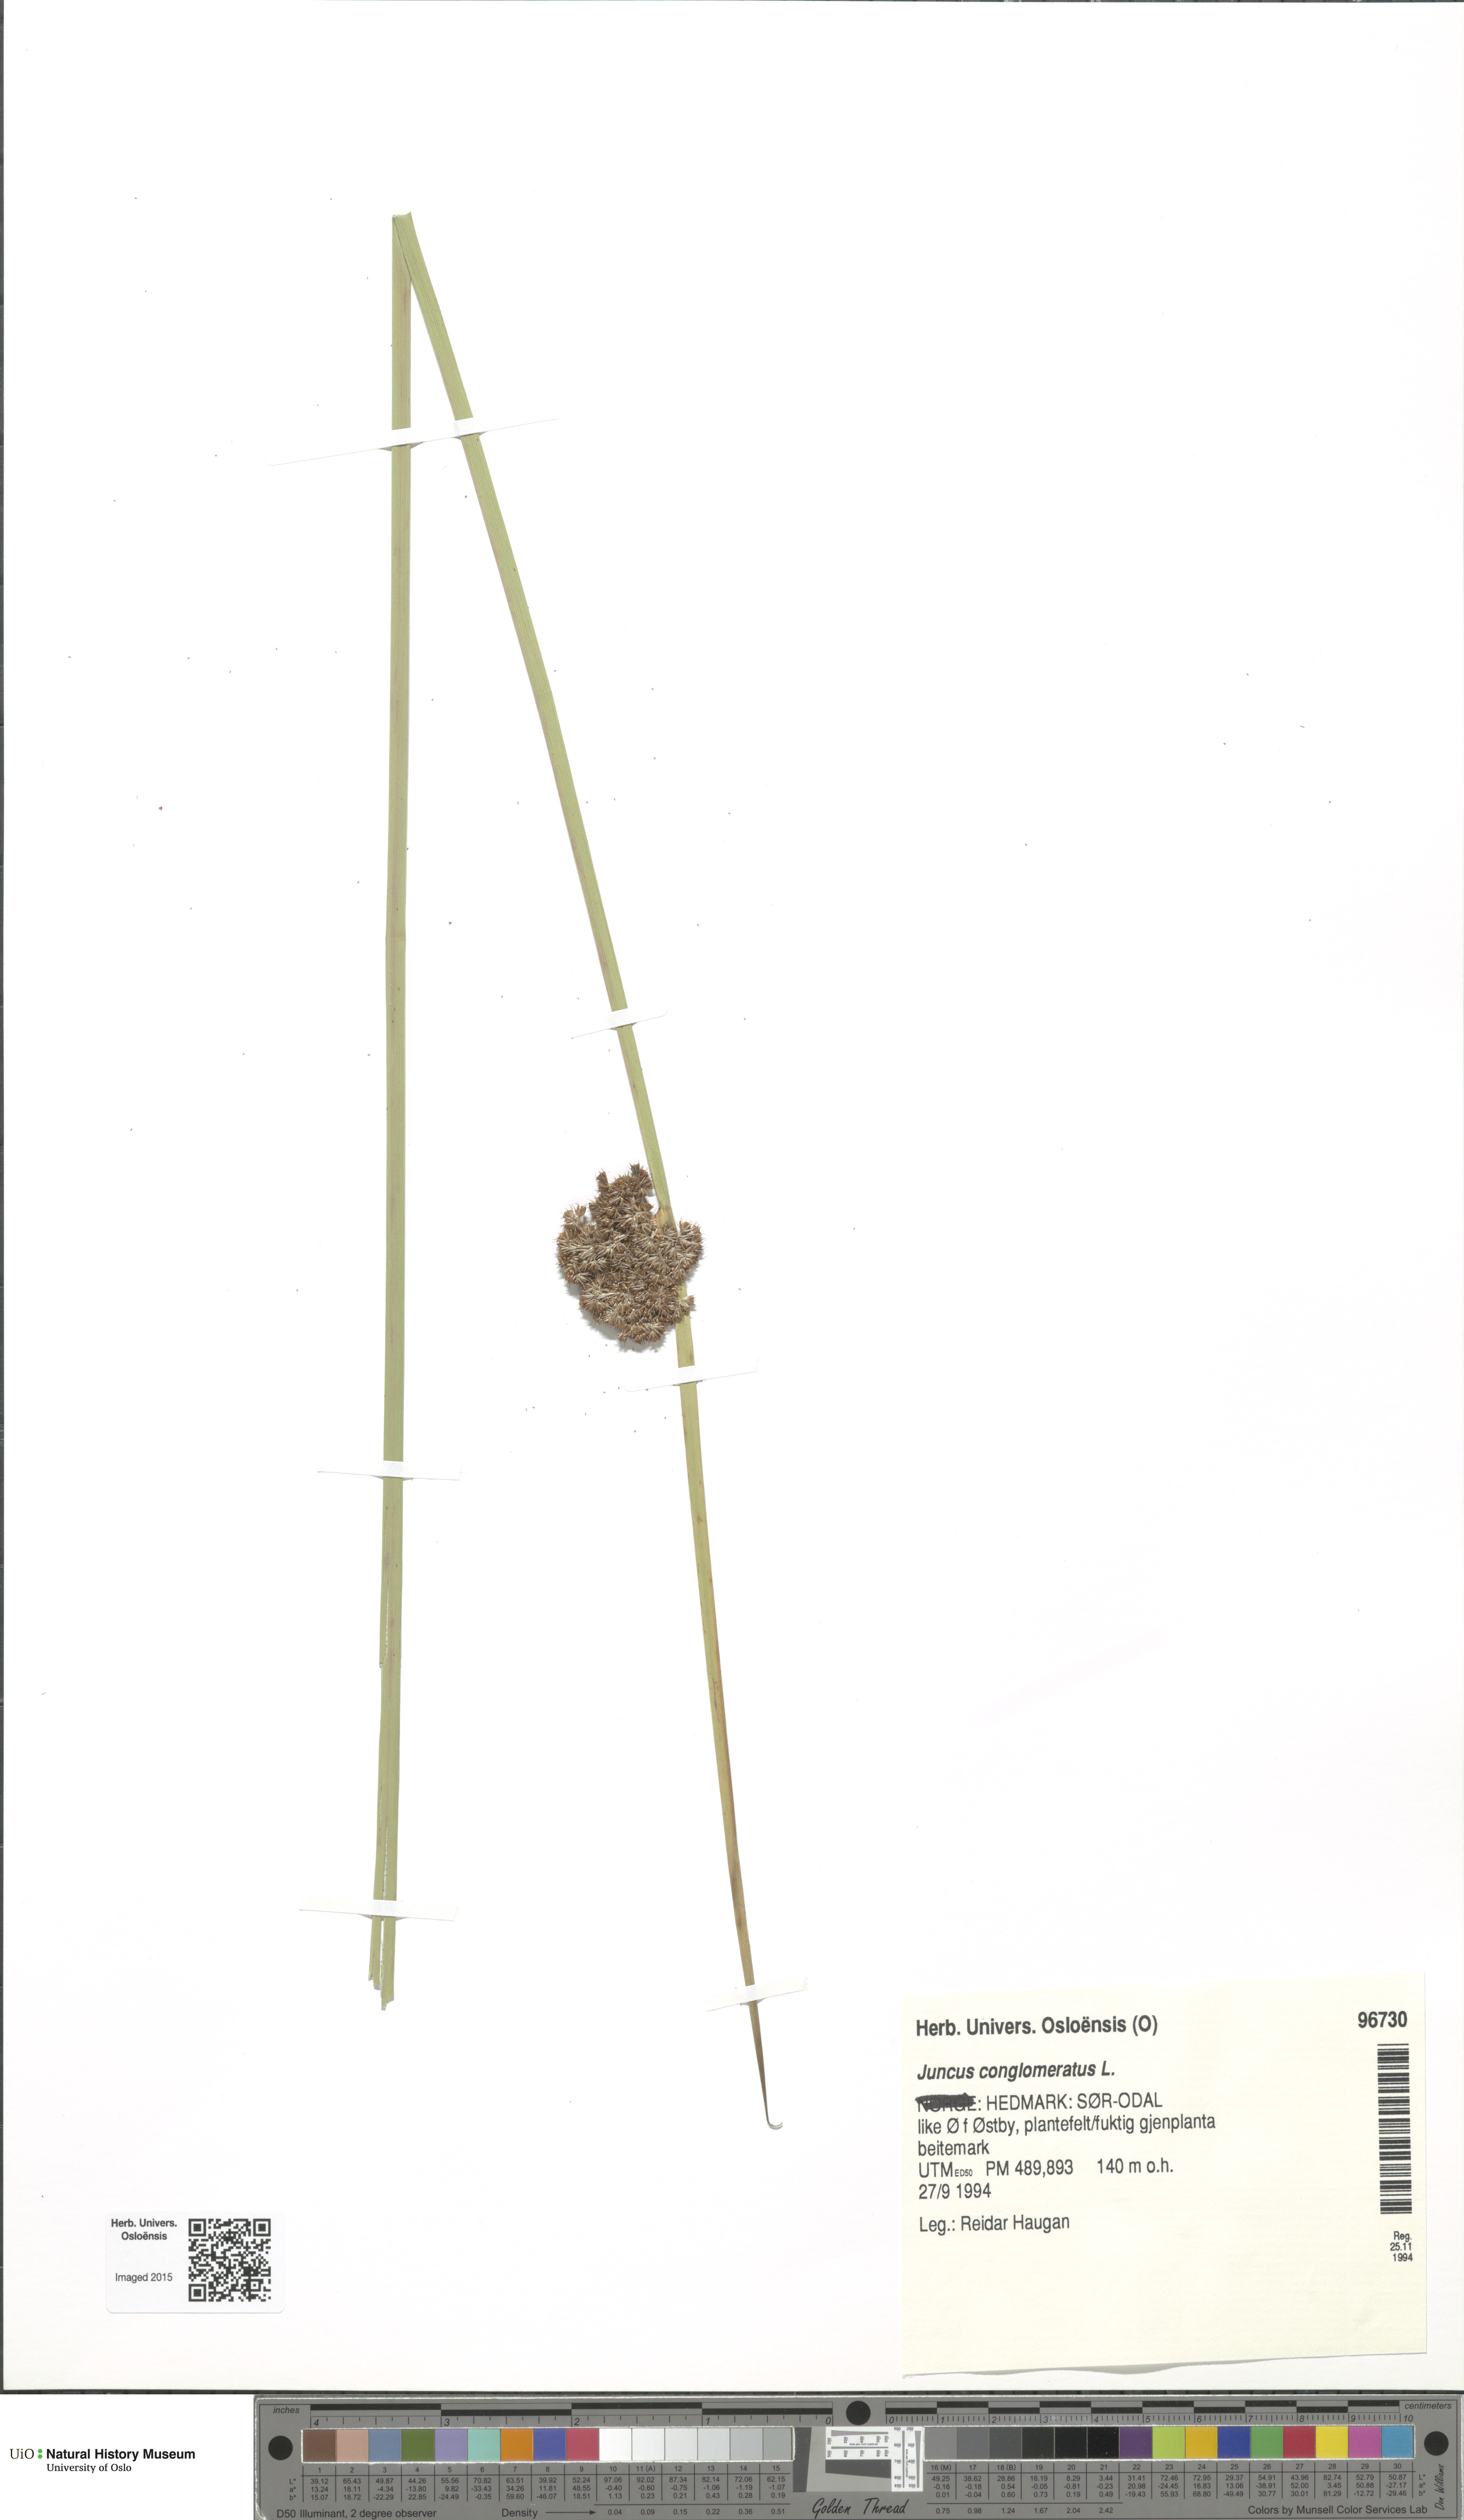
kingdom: Plantae
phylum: Tracheophyta
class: Liliopsida
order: Poales
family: Juncaceae
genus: Juncus
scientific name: Juncus conglomeratus
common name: Compact rush
